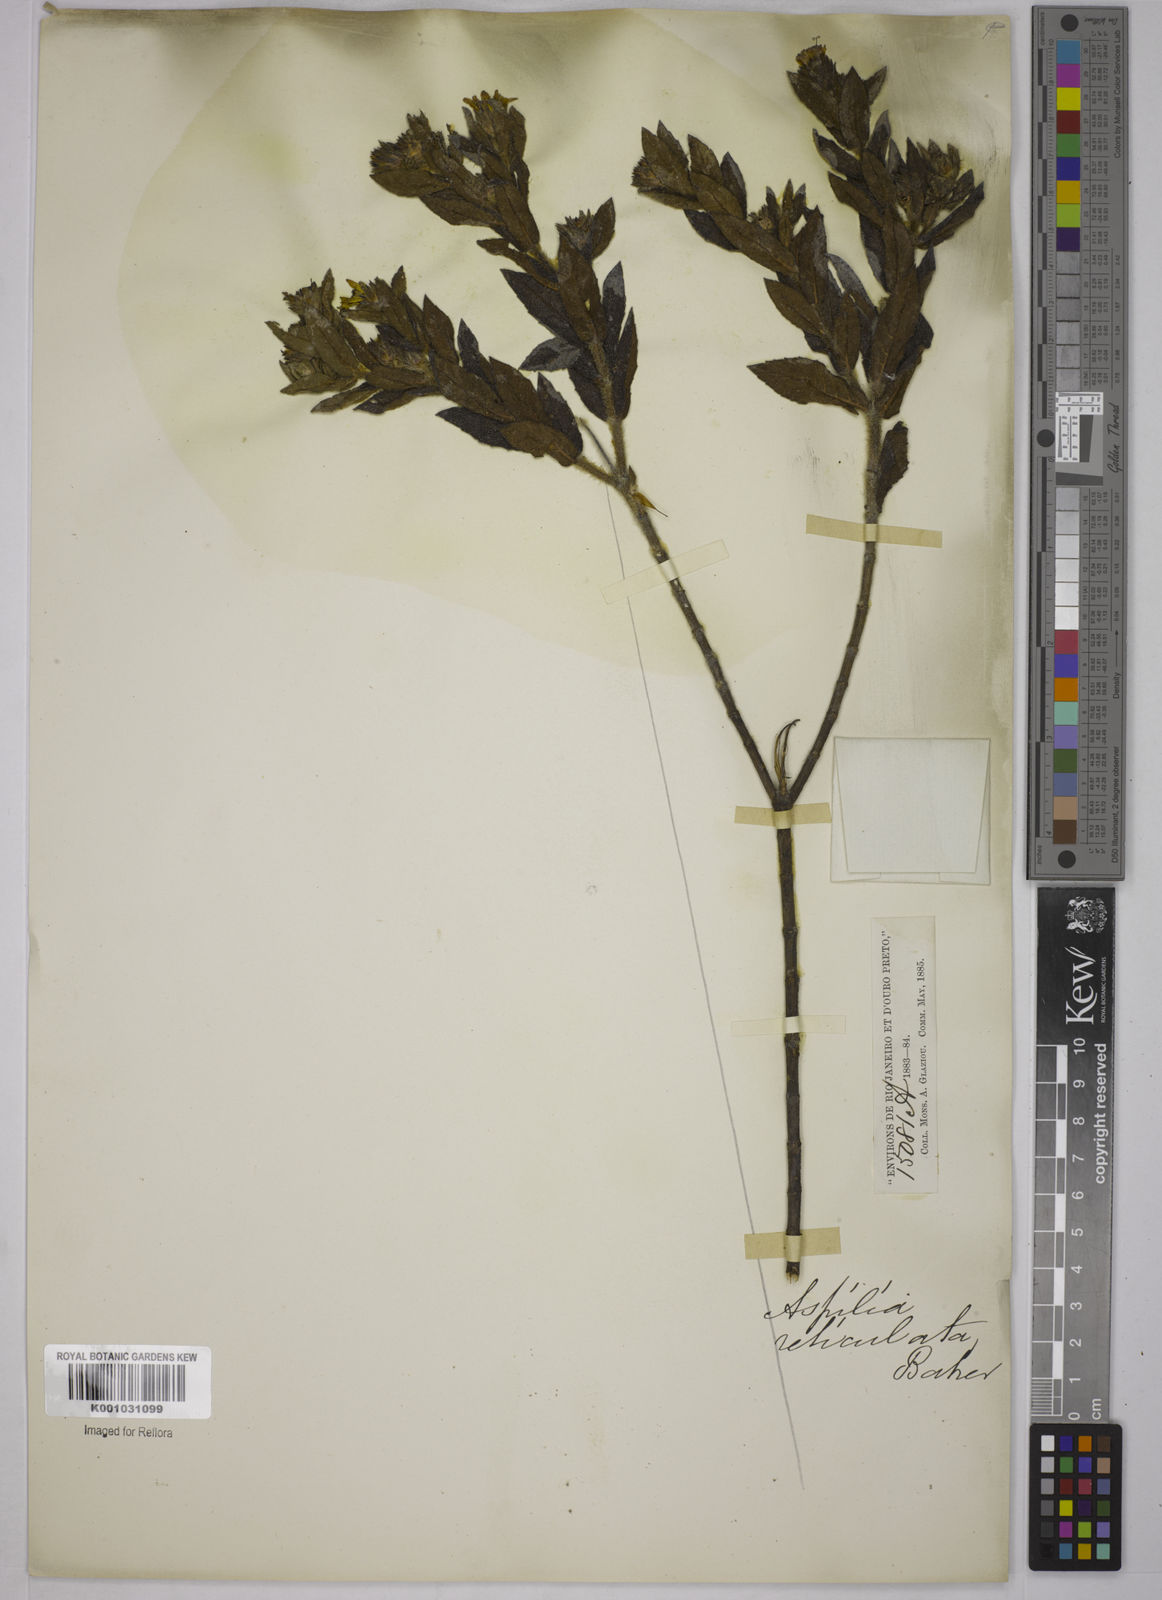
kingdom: Plantae
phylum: Tracheophyta
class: Magnoliopsida
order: Asterales
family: Asteraceae
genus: Wedelia
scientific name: Wedelia frioana
